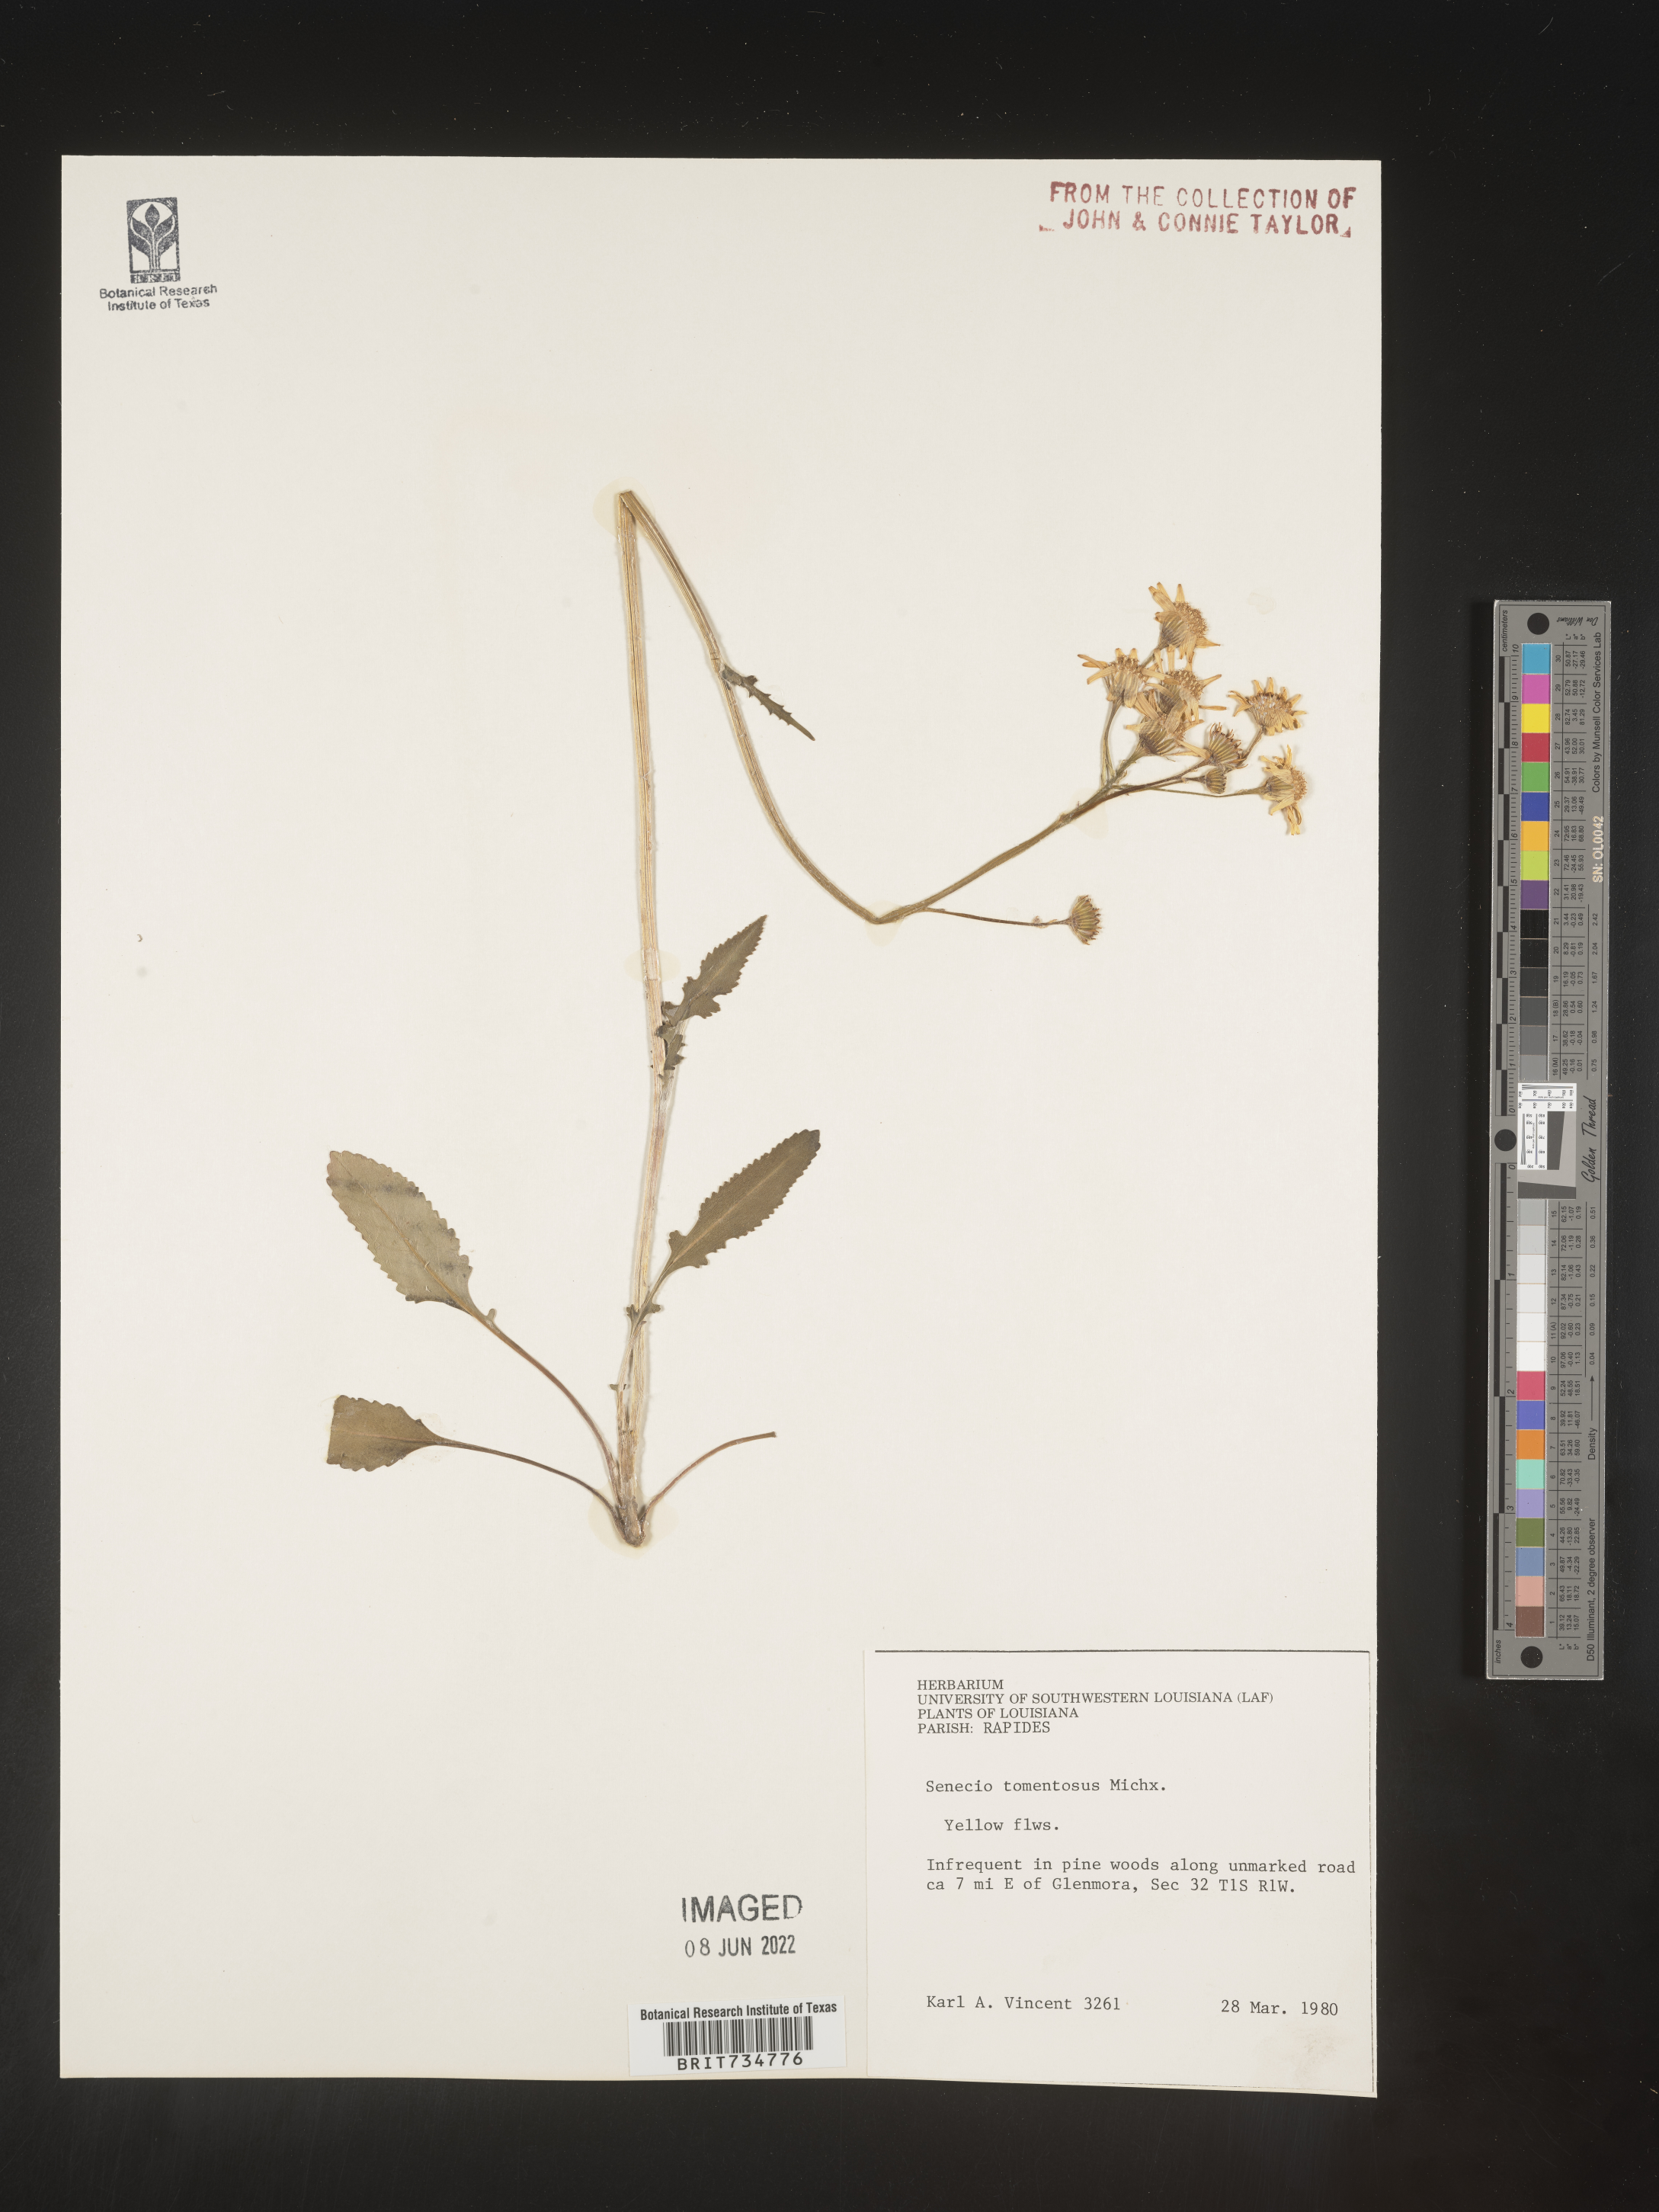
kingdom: Plantae
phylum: Tracheophyta
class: Magnoliopsida
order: Asterales
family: Asteraceae
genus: Packera
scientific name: Packera dubia
